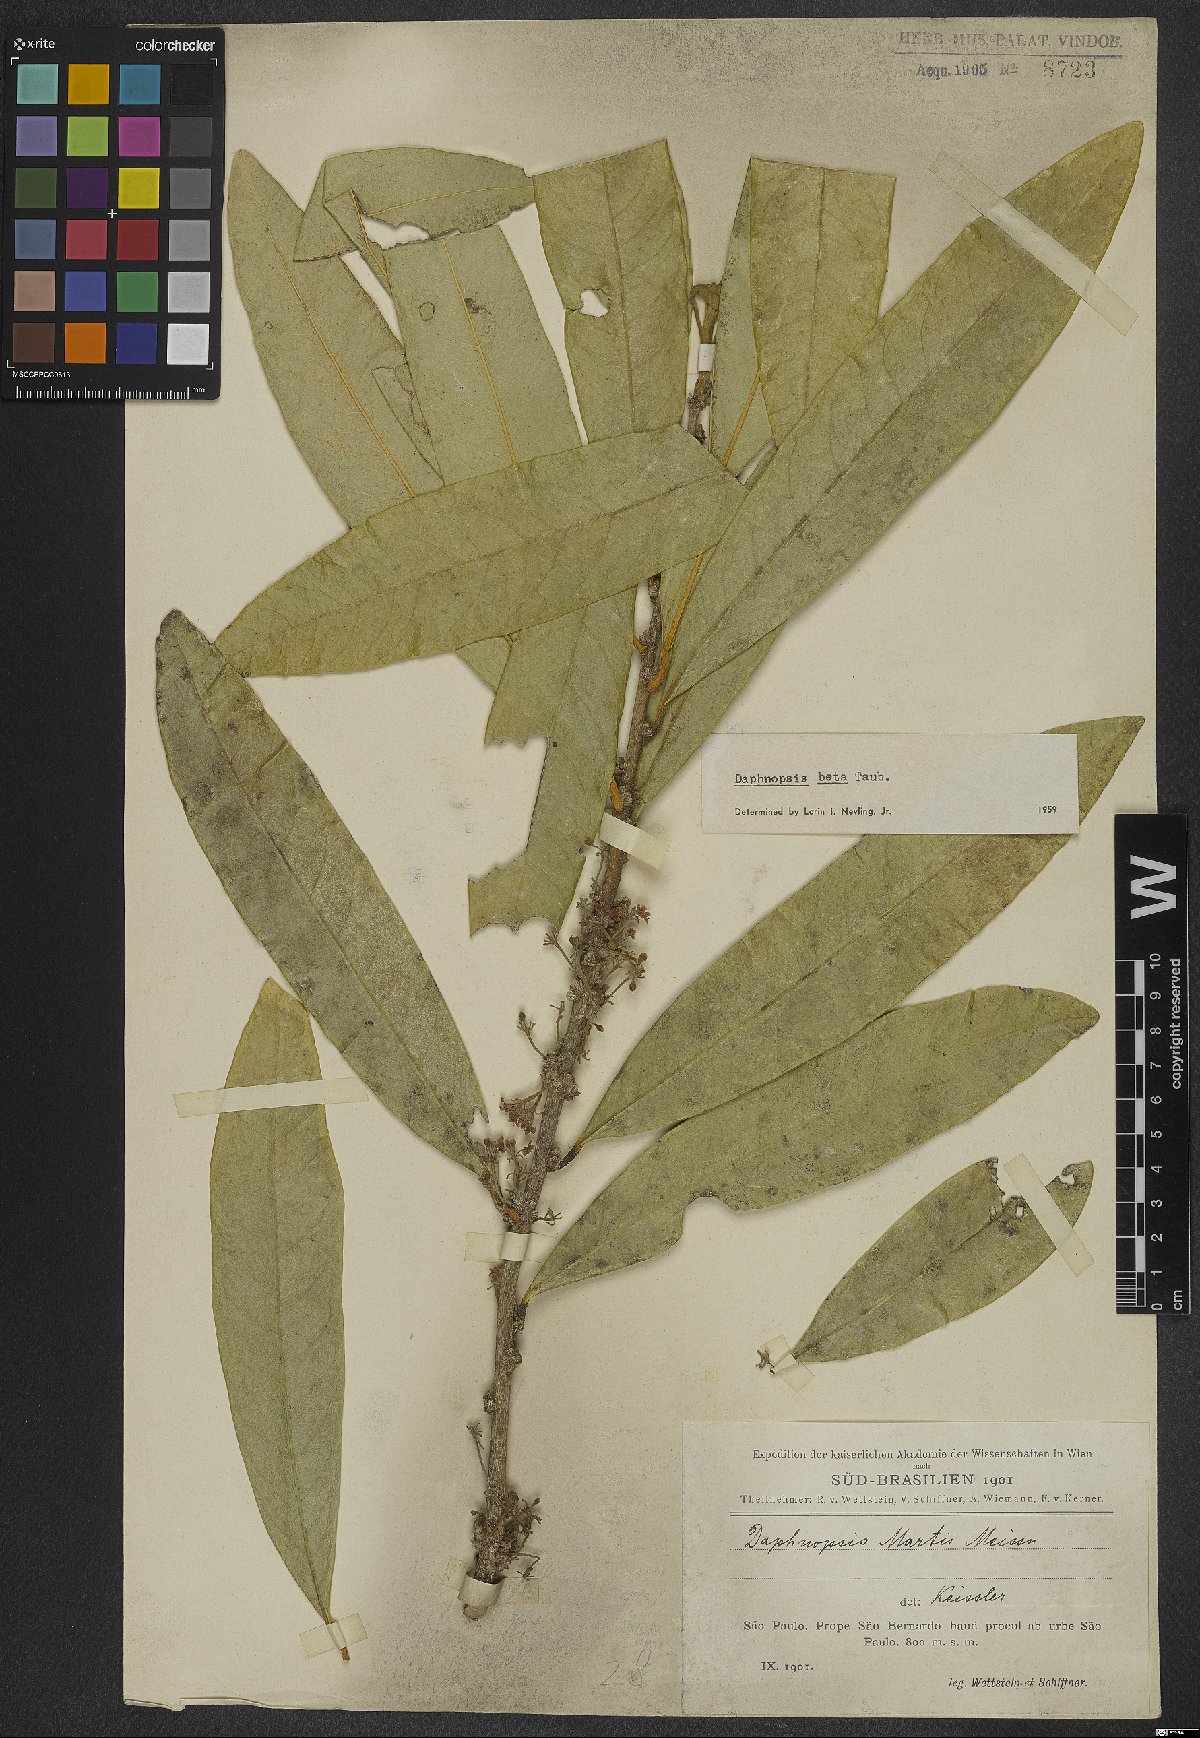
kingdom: Plantae
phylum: Tracheophyta
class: Magnoliopsida
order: Malvales
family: Thymelaeaceae
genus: Daphnopsis
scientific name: Daphnopsis fasciculata
